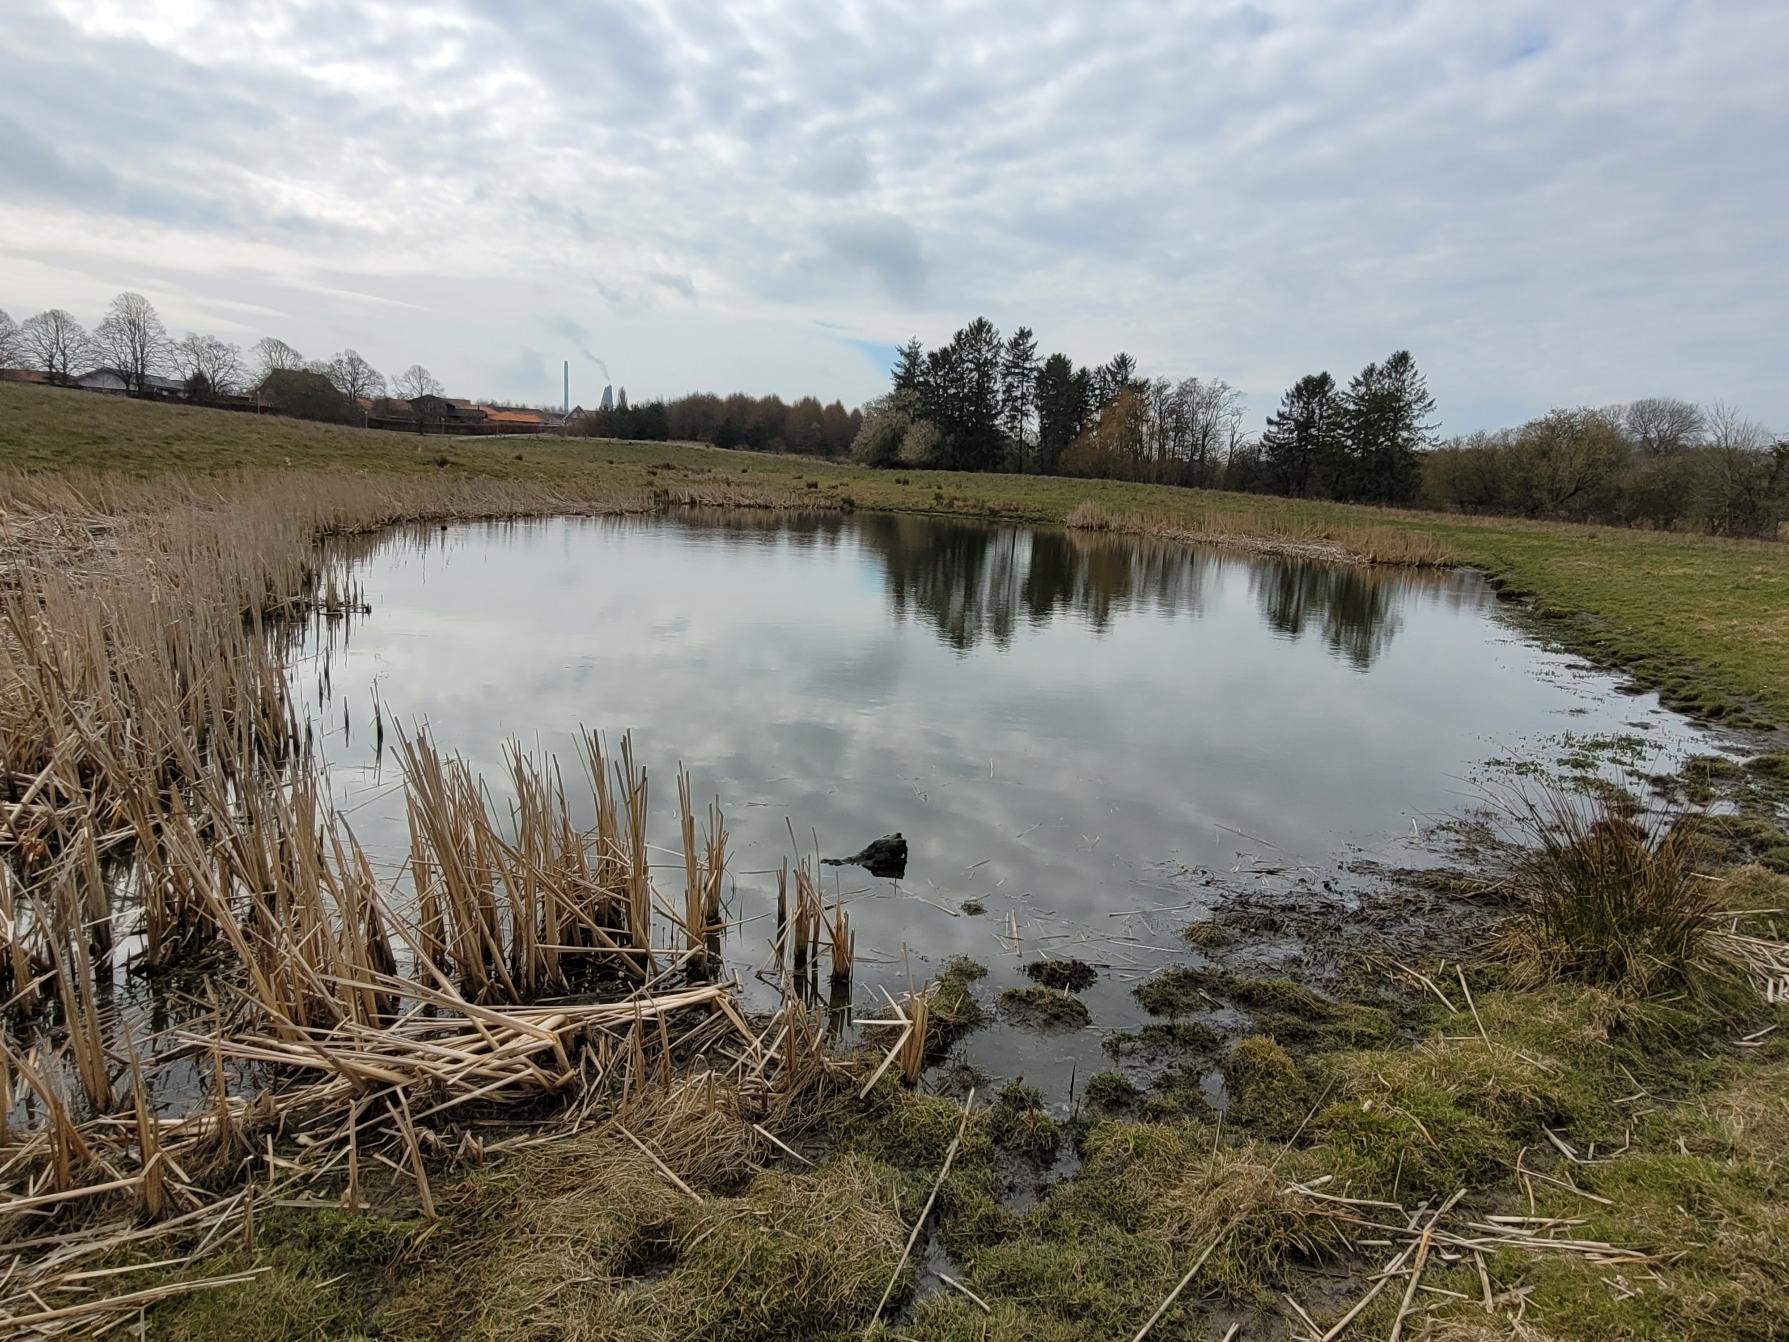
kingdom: Animalia
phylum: Chordata
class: Aves
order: Anseriformes
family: Anatidae
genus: Anas
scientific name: Anas crecca
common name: Krikand
